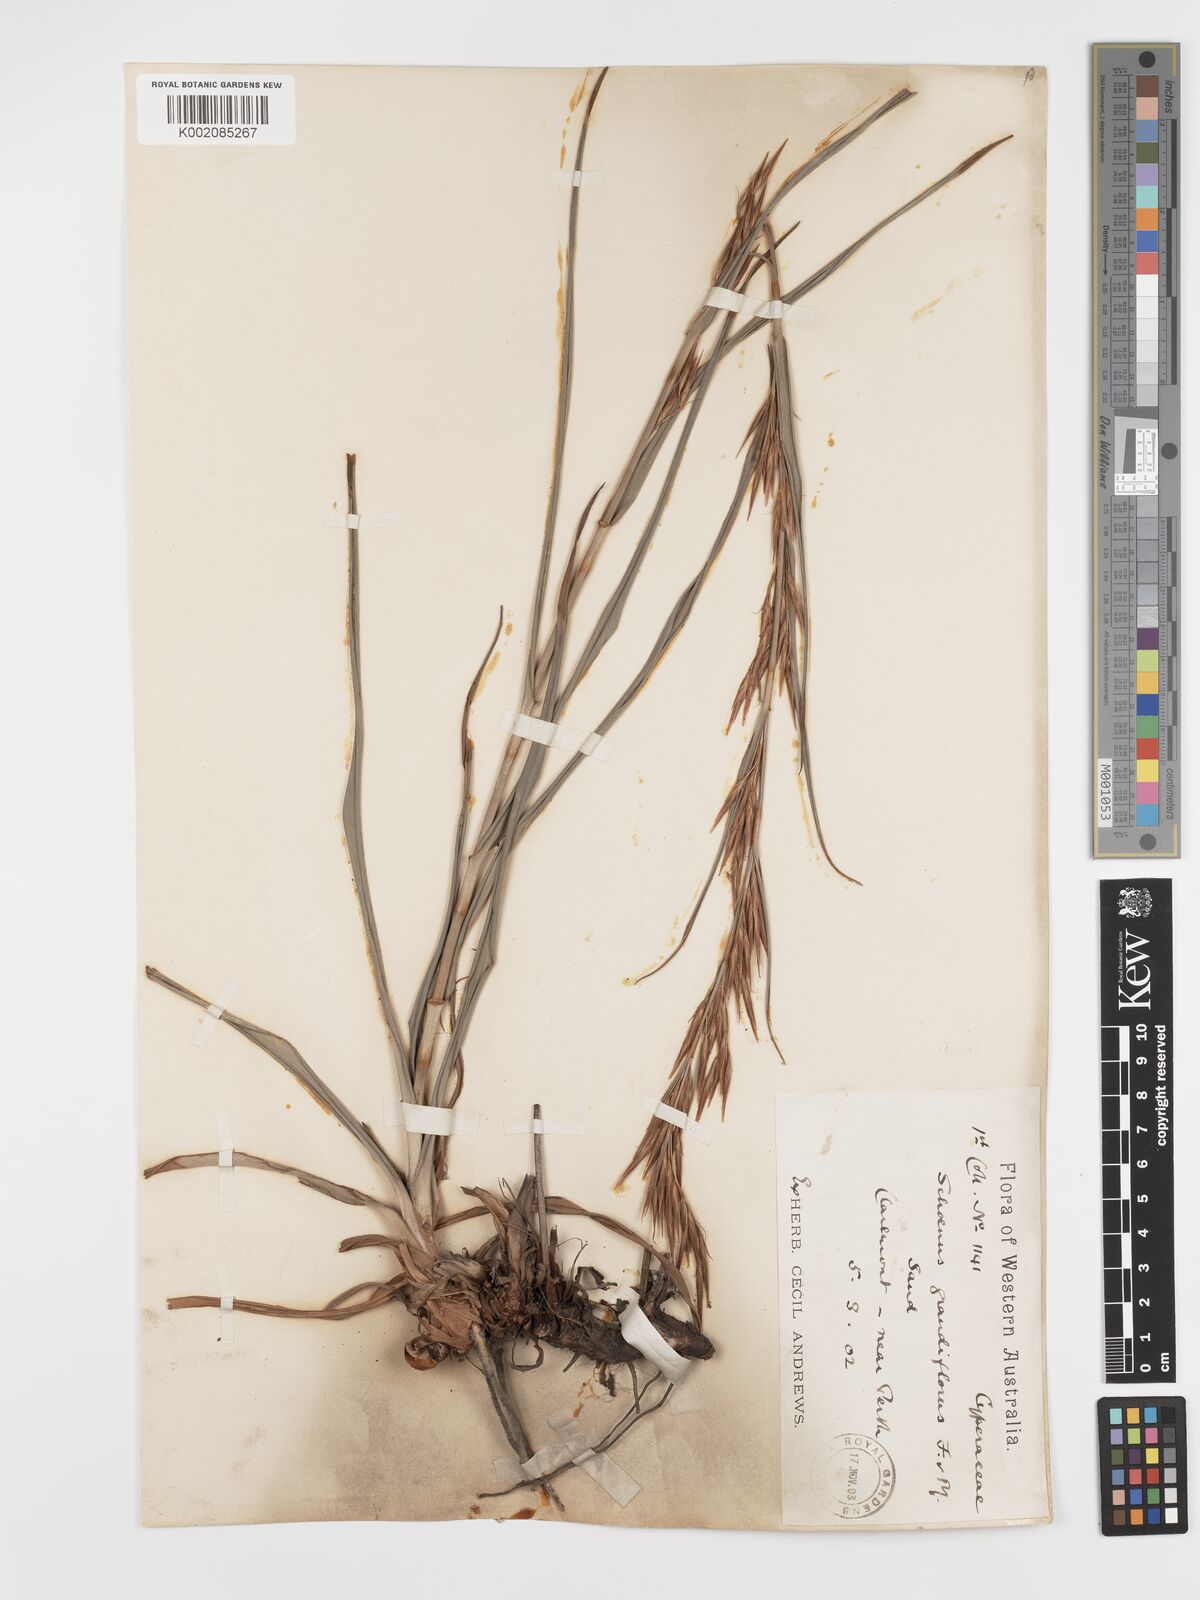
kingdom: Plantae
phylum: Tracheophyta
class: Liliopsida
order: Poales
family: Cyperaceae
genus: Schoenus
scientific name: Schoenus grandiflorus
